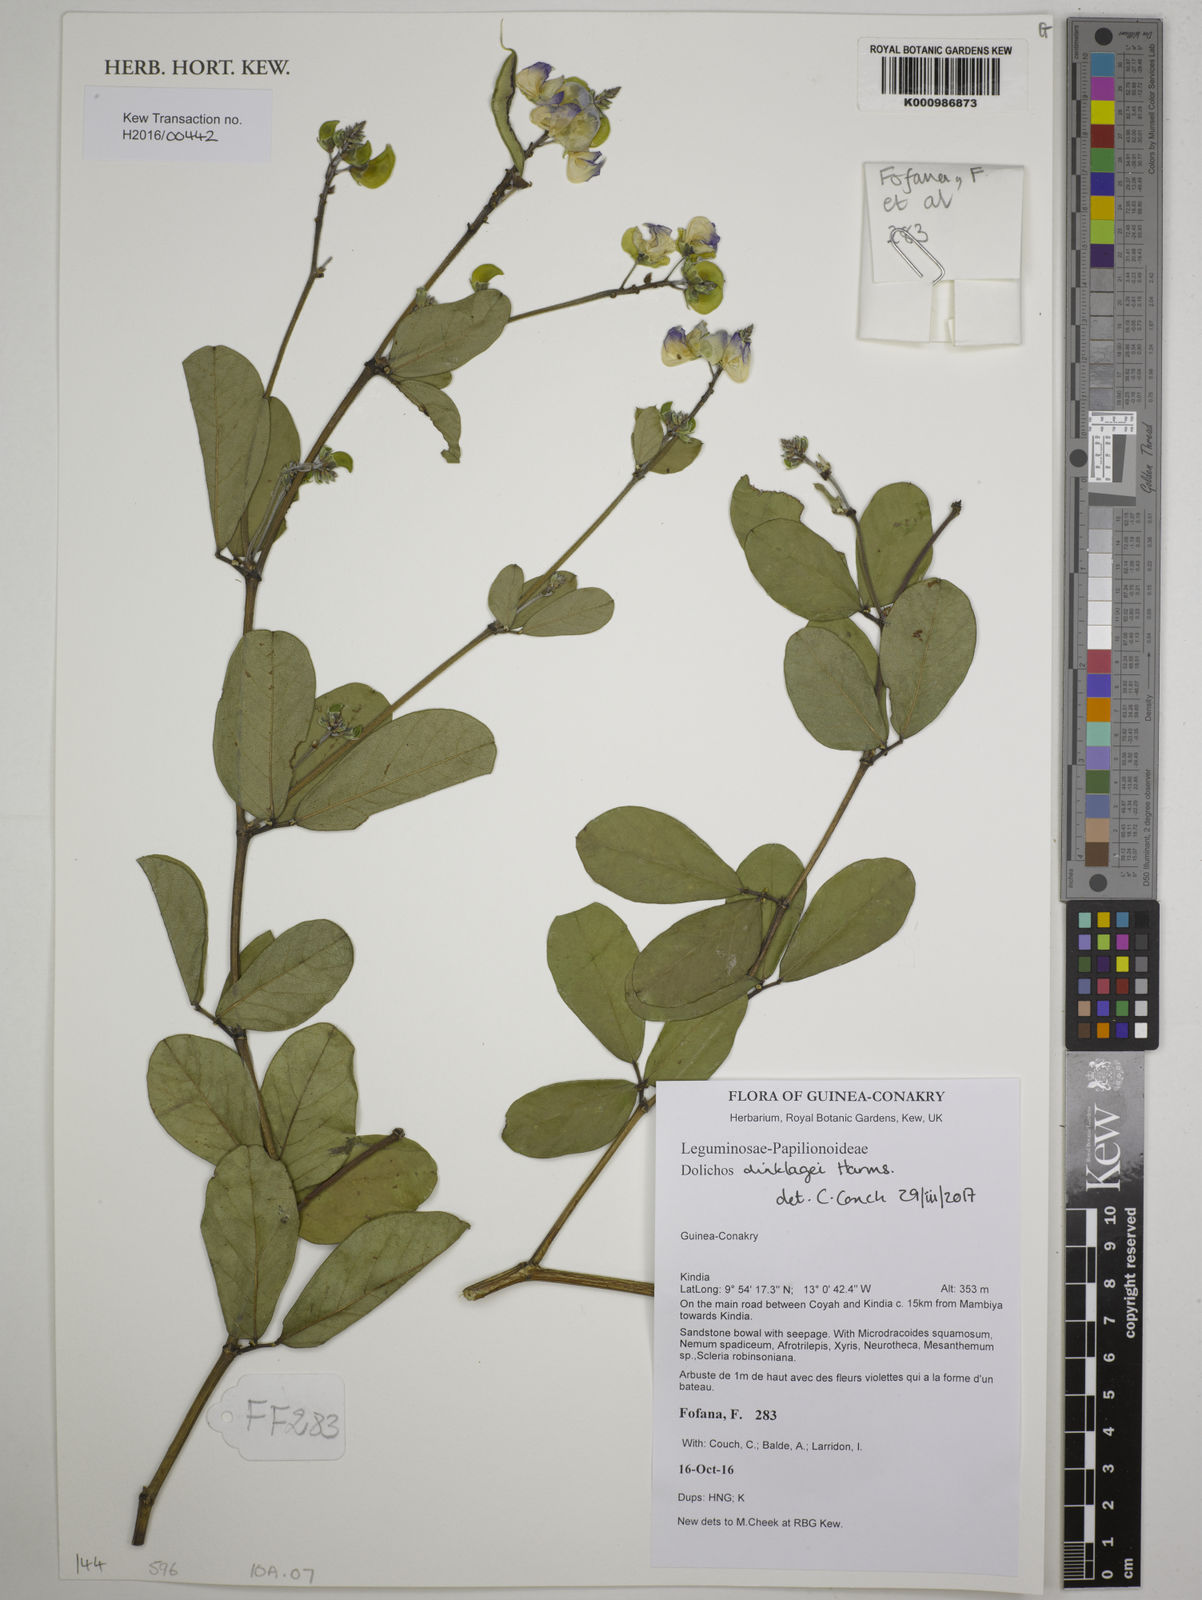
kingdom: Plantae
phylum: Tracheophyta
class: Magnoliopsida
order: Fabales
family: Fabaceae
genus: Dolichos
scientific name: Dolichos dinklagei
